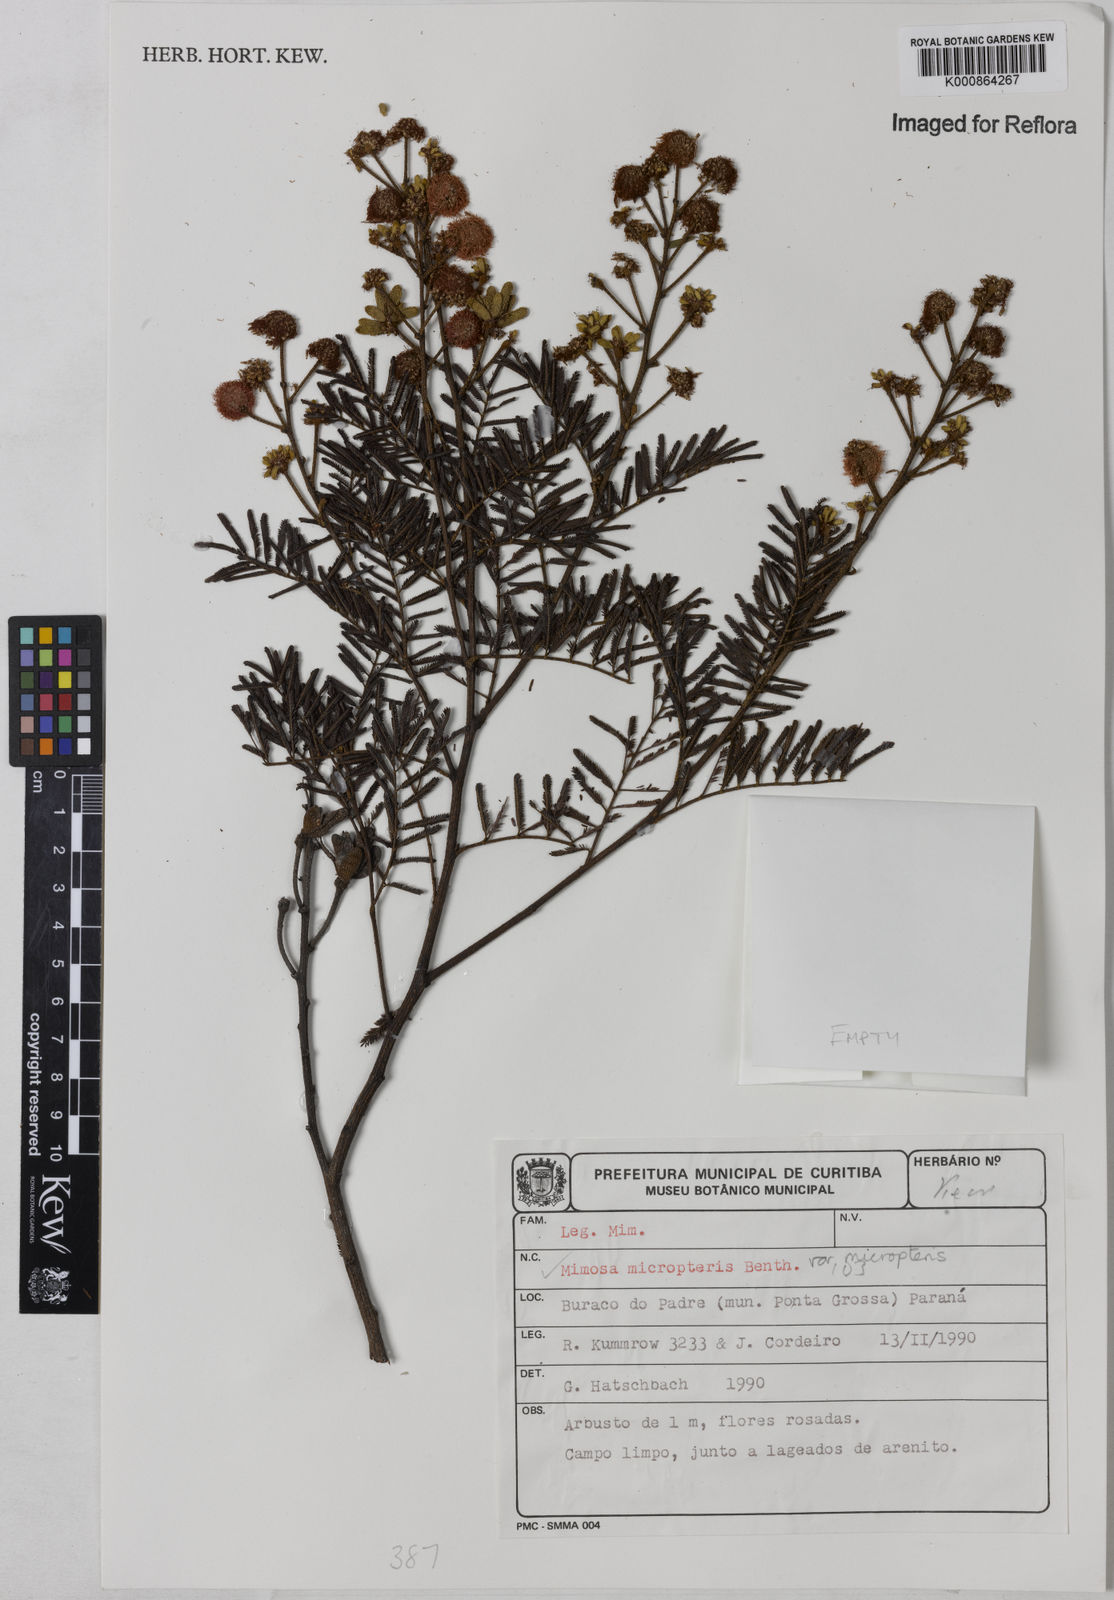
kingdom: Plantae
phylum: Tracheophyta
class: Magnoliopsida
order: Fabales
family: Fabaceae
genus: Mimosa
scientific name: Mimosa micropteris
